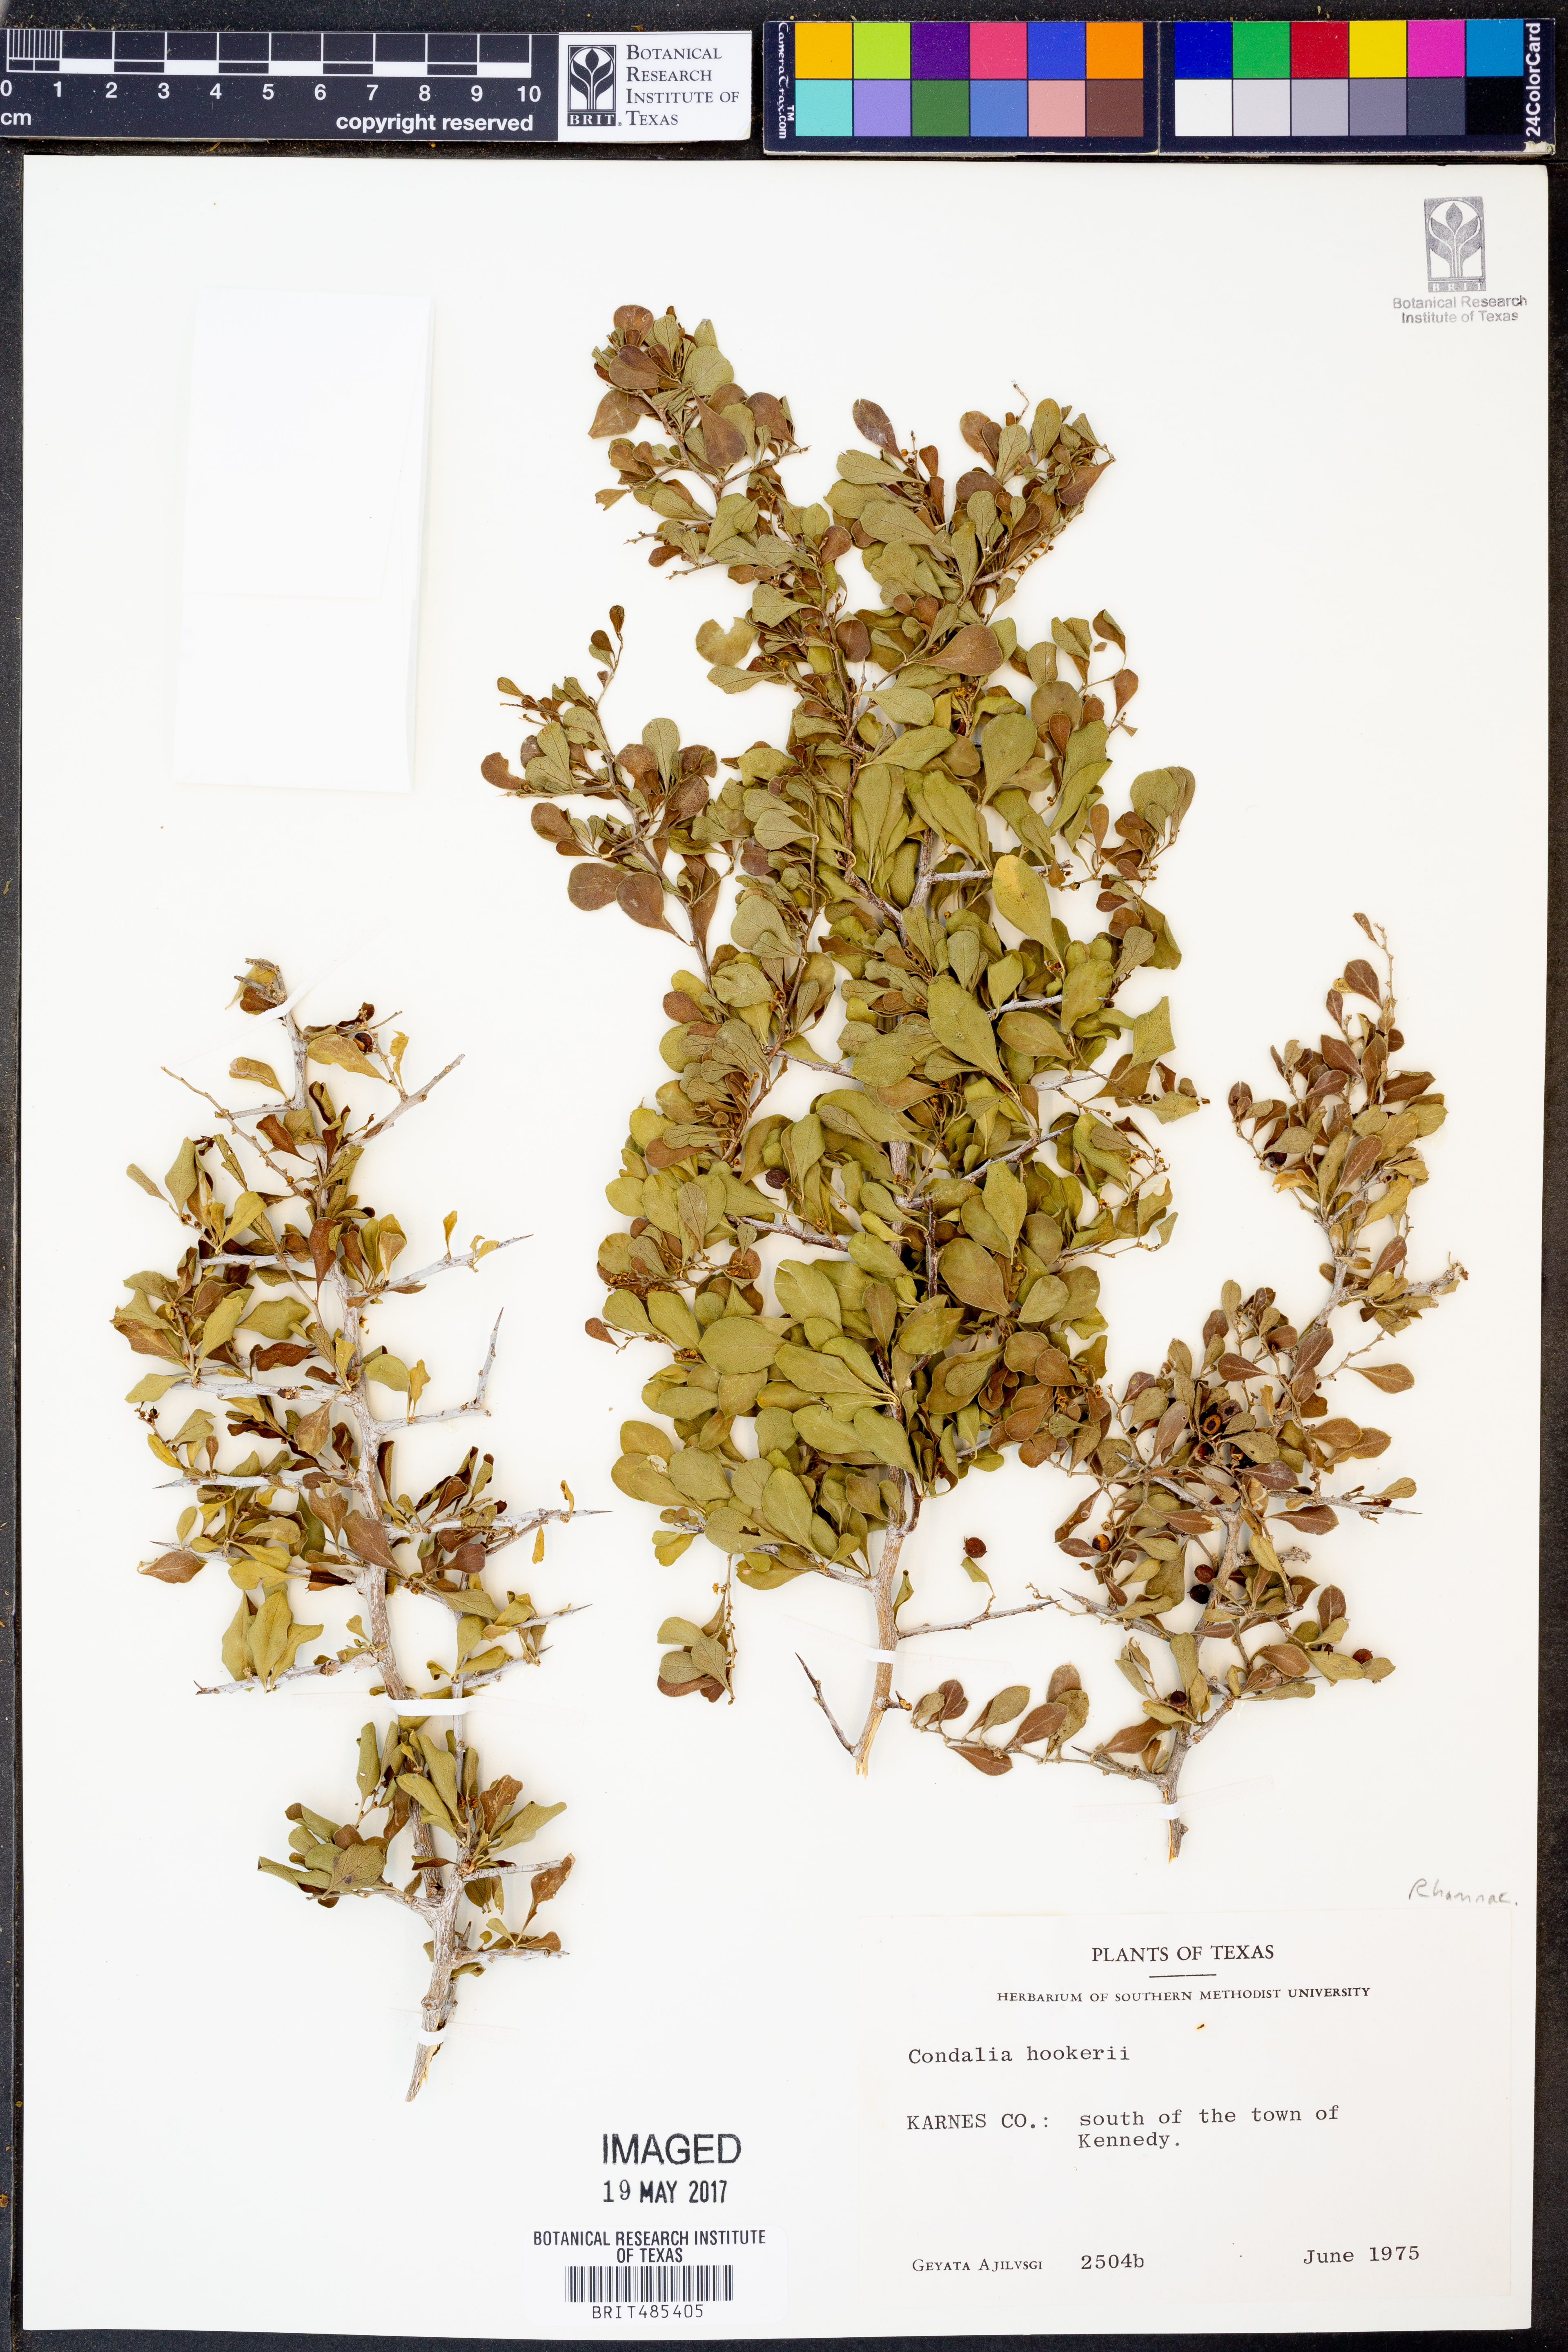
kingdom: Plantae
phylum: Tracheophyta
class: Magnoliopsida
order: Rosales
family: Rhamnaceae
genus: Condalia
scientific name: Condalia hookeri
